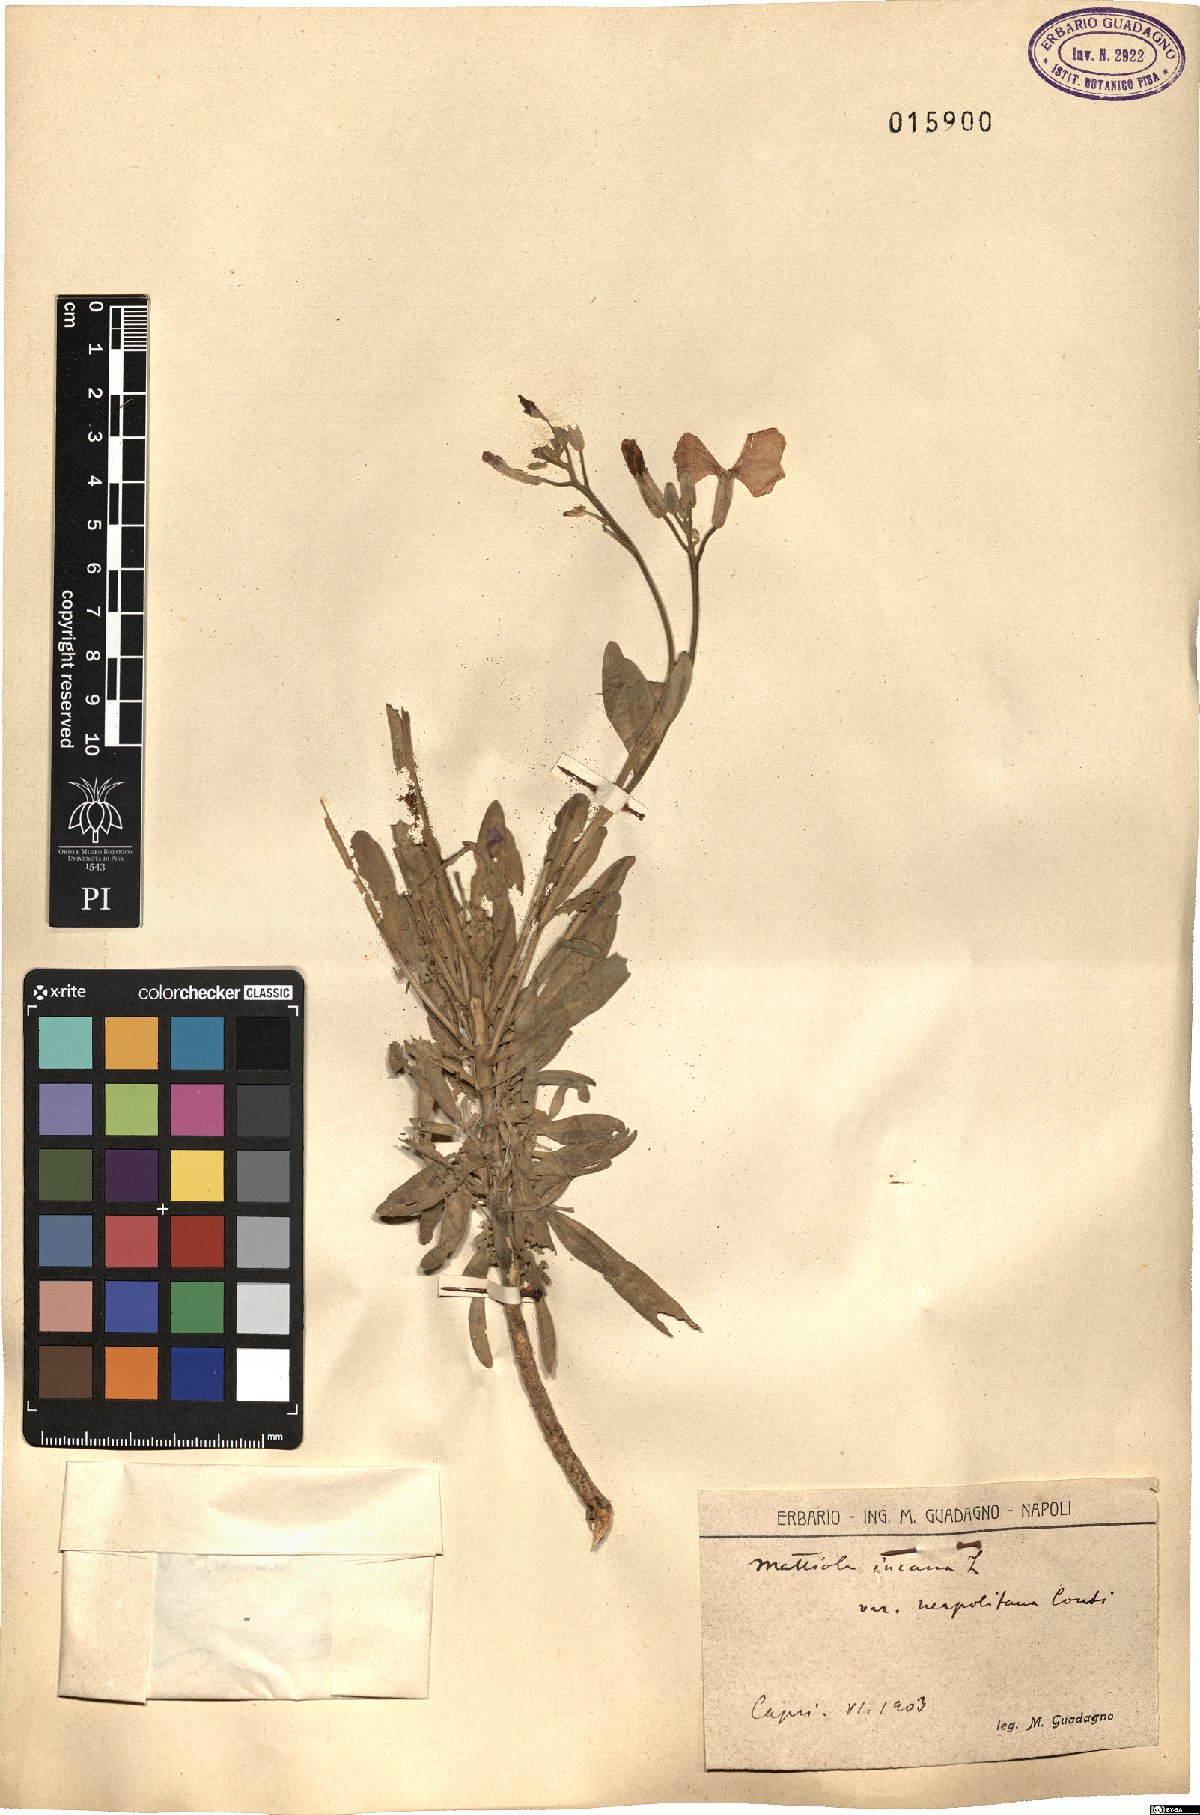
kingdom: Plantae
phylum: Tracheophyta
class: Magnoliopsida
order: Brassicales
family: Brassicaceae
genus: Matthiola
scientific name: Matthiola incana
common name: Hoary stock
